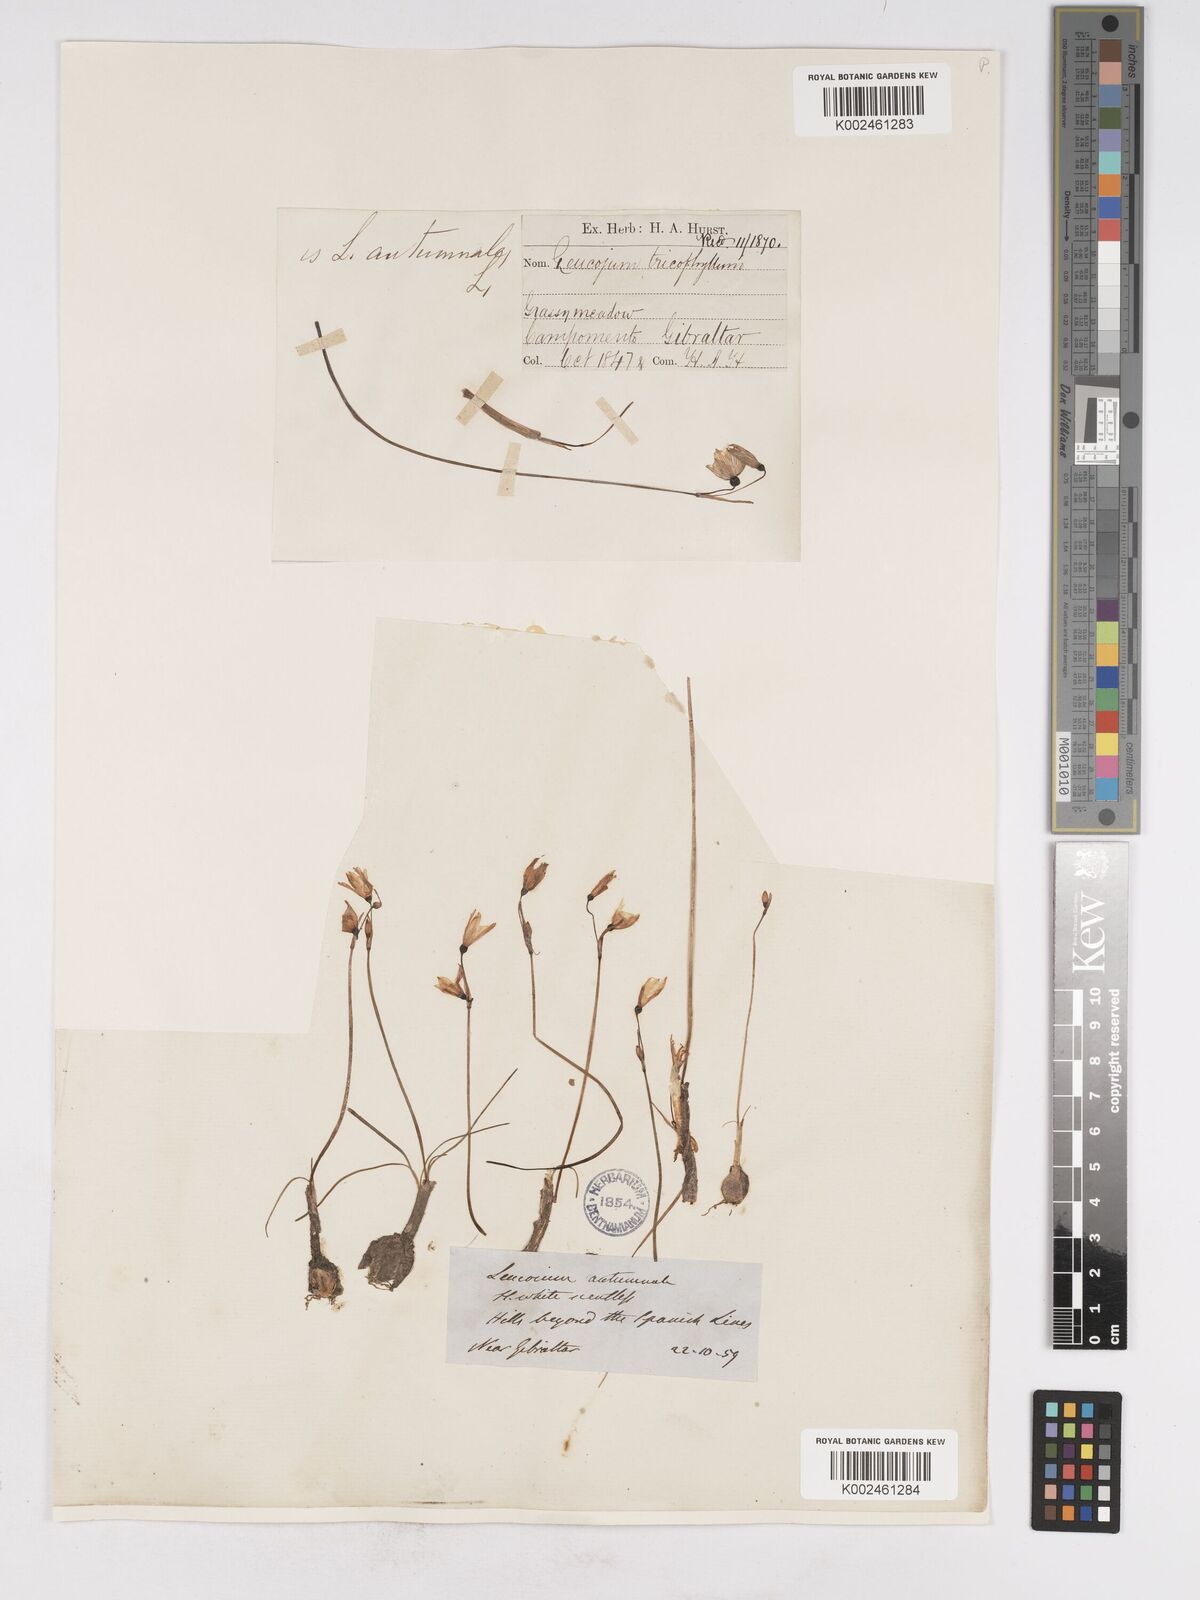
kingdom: Plantae
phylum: Tracheophyta
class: Liliopsida
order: Asparagales
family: Amaryllidaceae
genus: Acis
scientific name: Acis trichophylla
